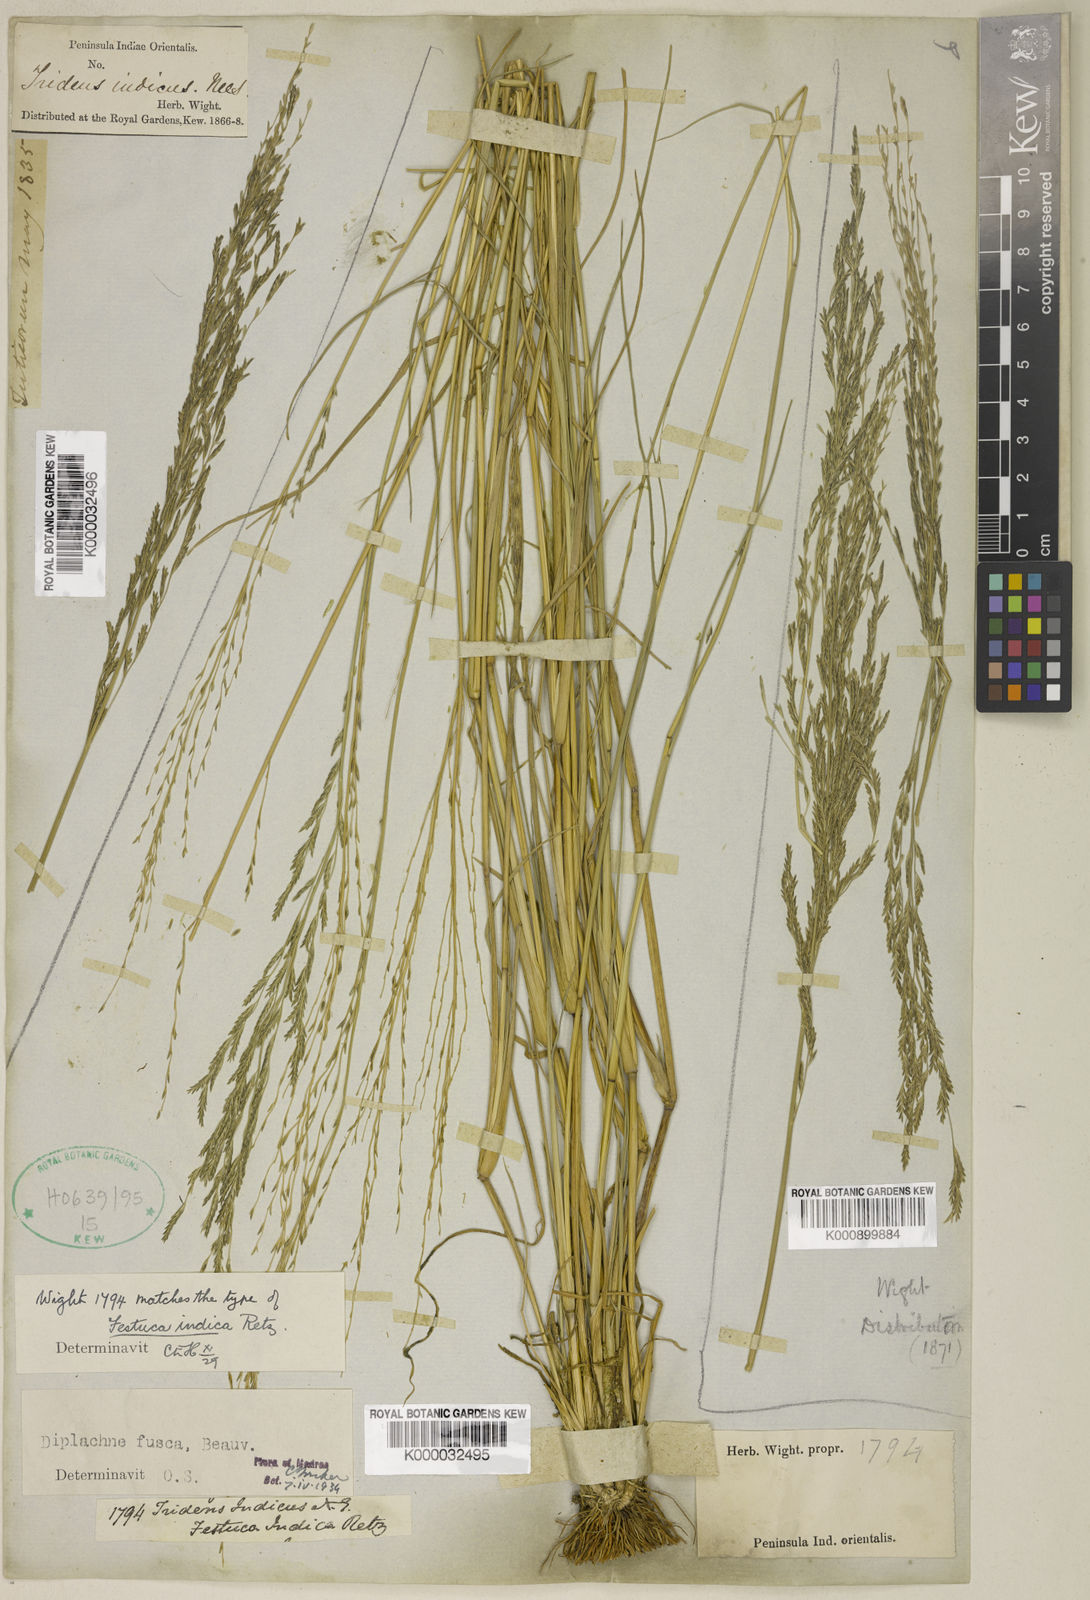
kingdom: Plantae
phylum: Tracheophyta
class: Liliopsida
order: Poales
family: Poaceae
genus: Diplachne
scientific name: Diplachne fusca
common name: Brown beetle grass
